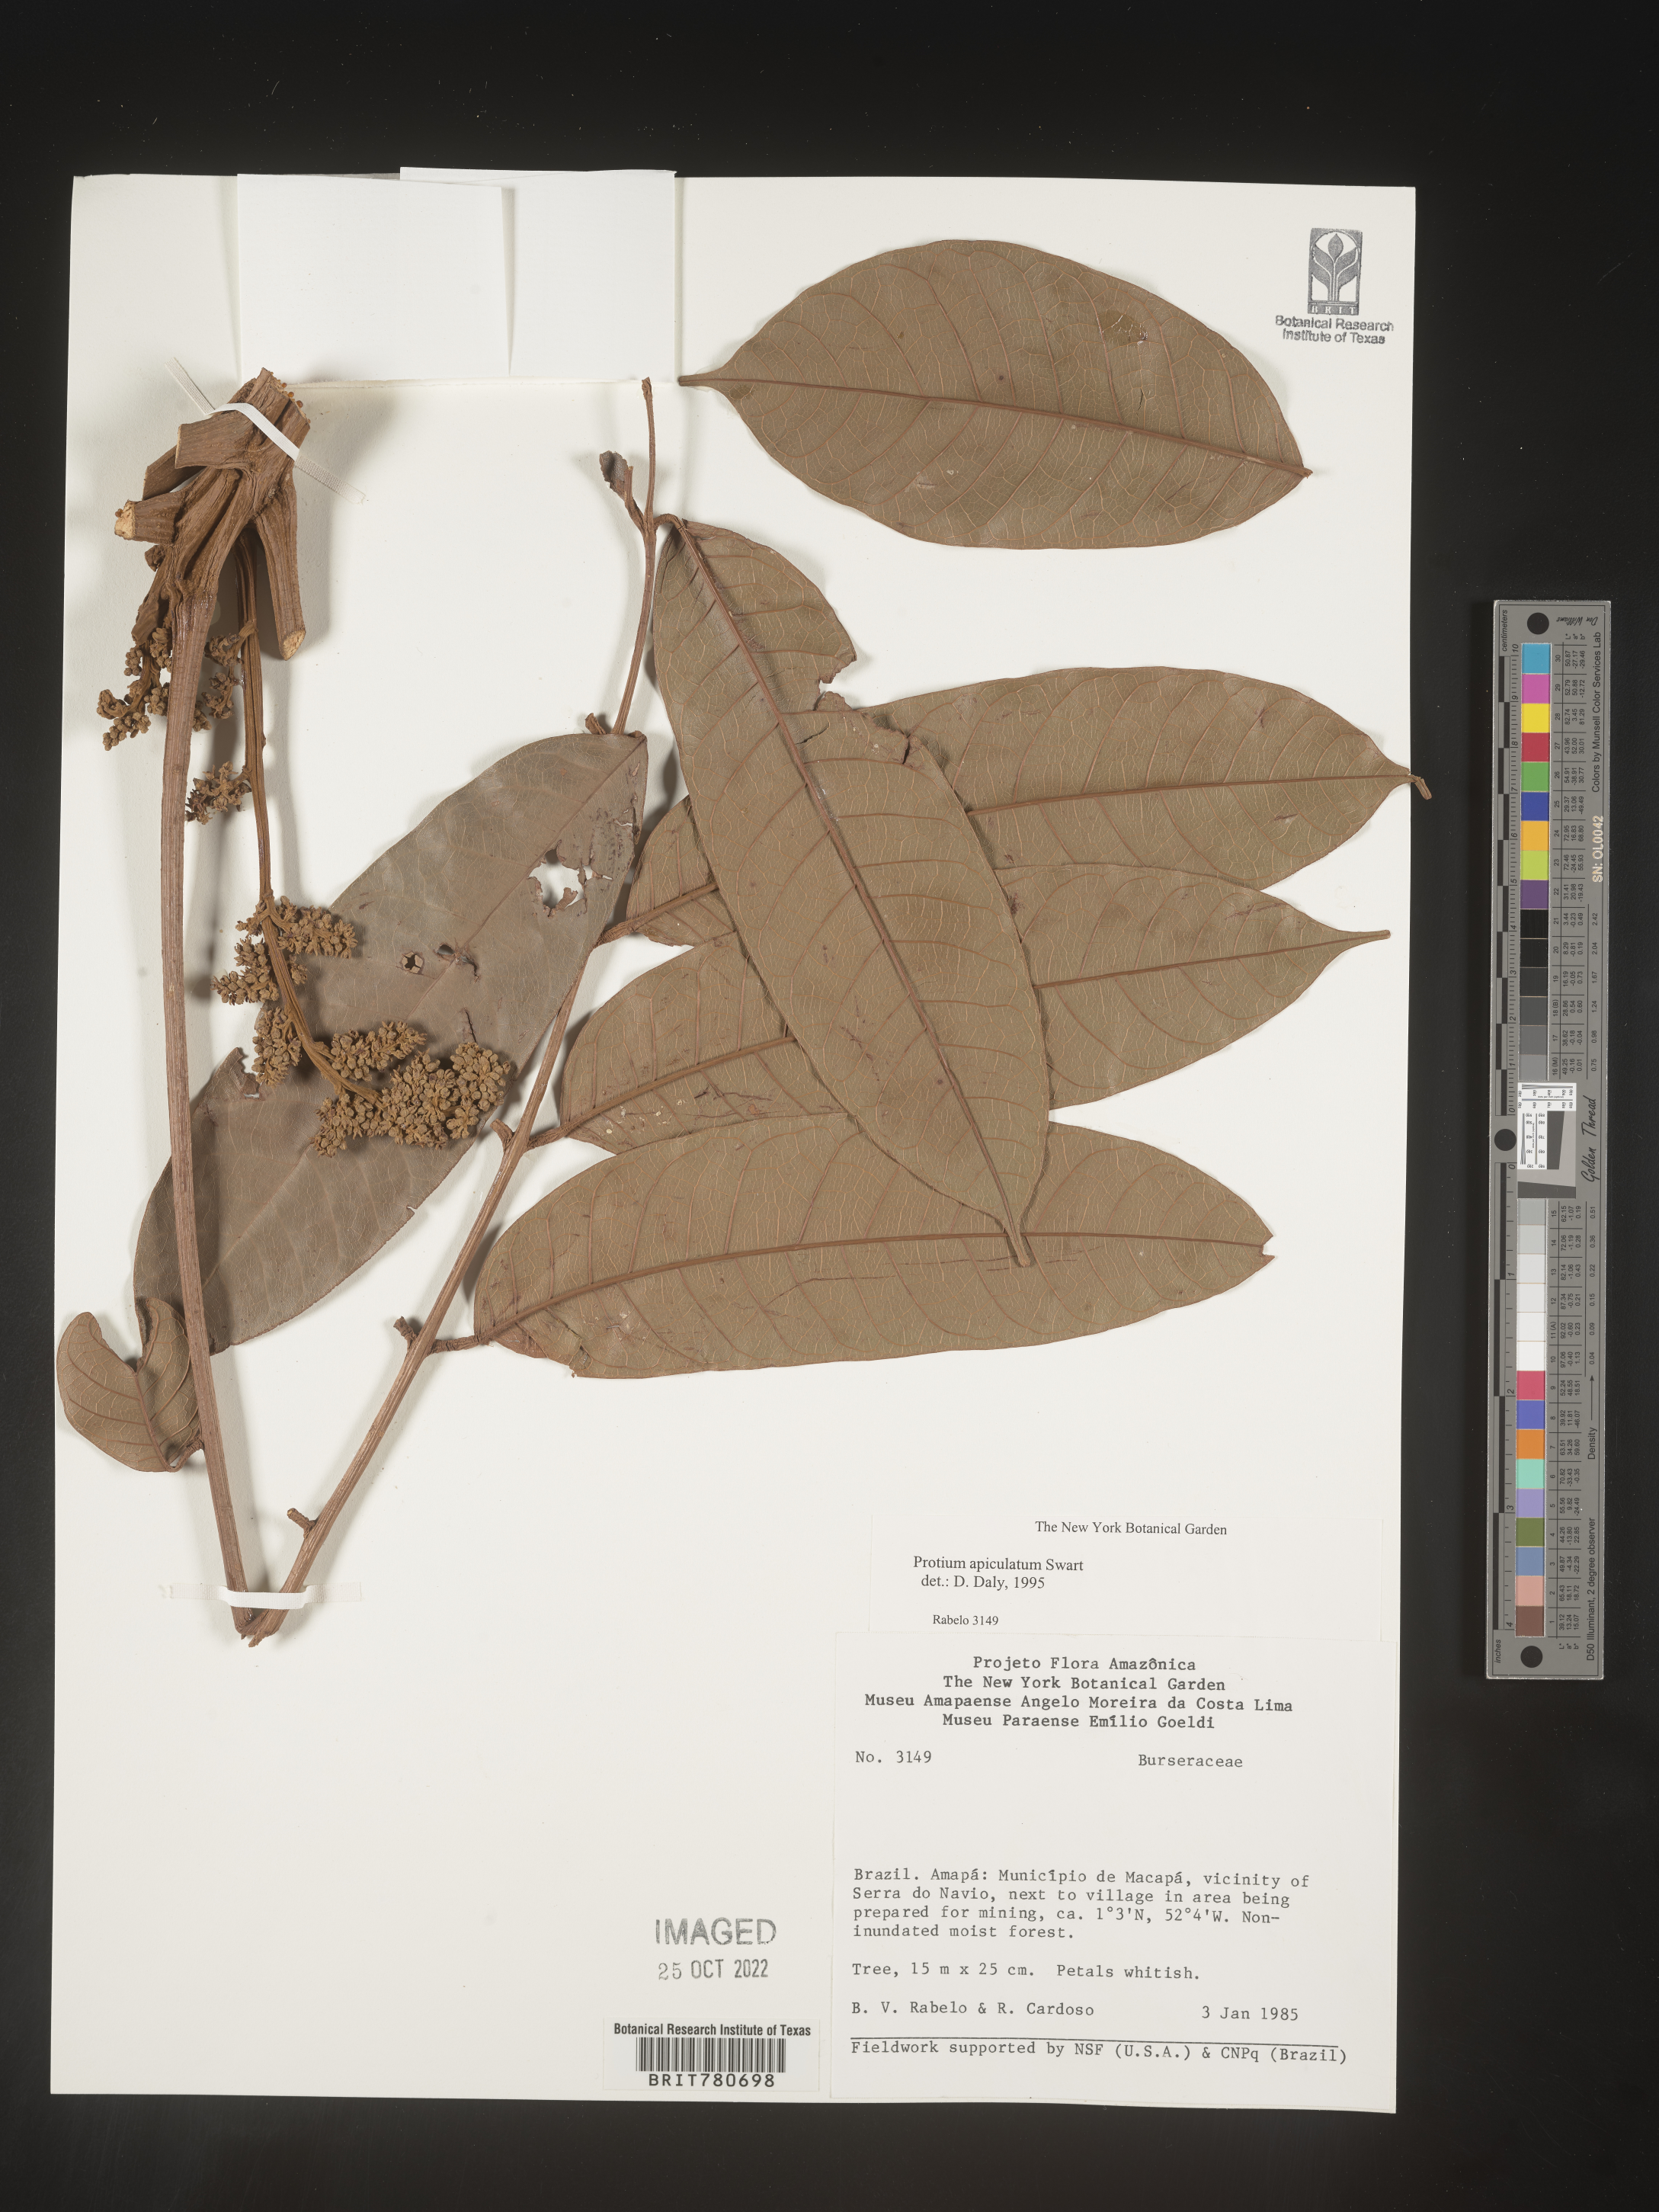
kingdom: Plantae
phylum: Tracheophyta
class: Magnoliopsida
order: Sapindales
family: Burseraceae
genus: Protium
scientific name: Protium
